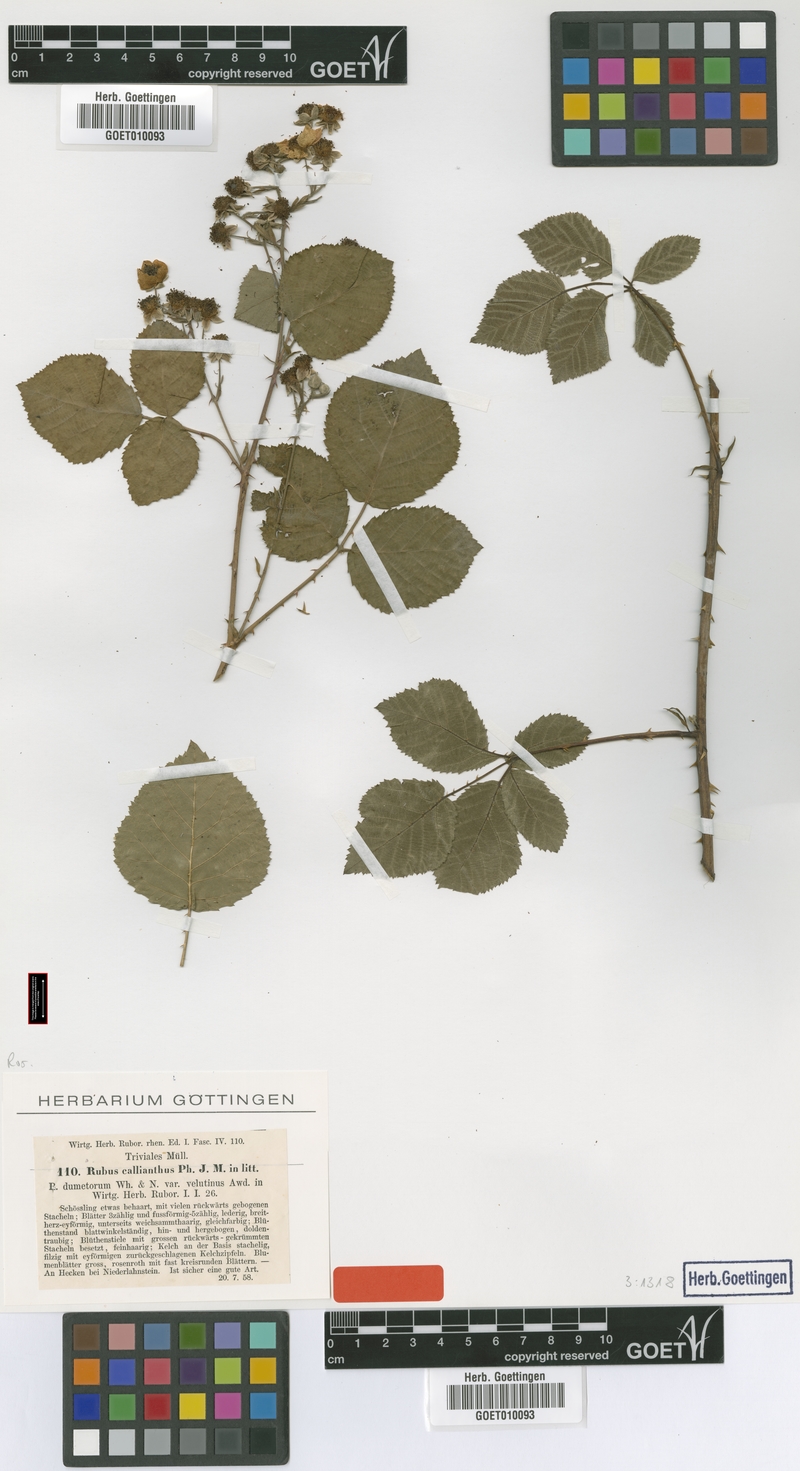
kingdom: Plantae
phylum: Tracheophyta
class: Magnoliopsida
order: Rosales
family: Rosaceae
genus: Rubus
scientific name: Rubus nemorosus
